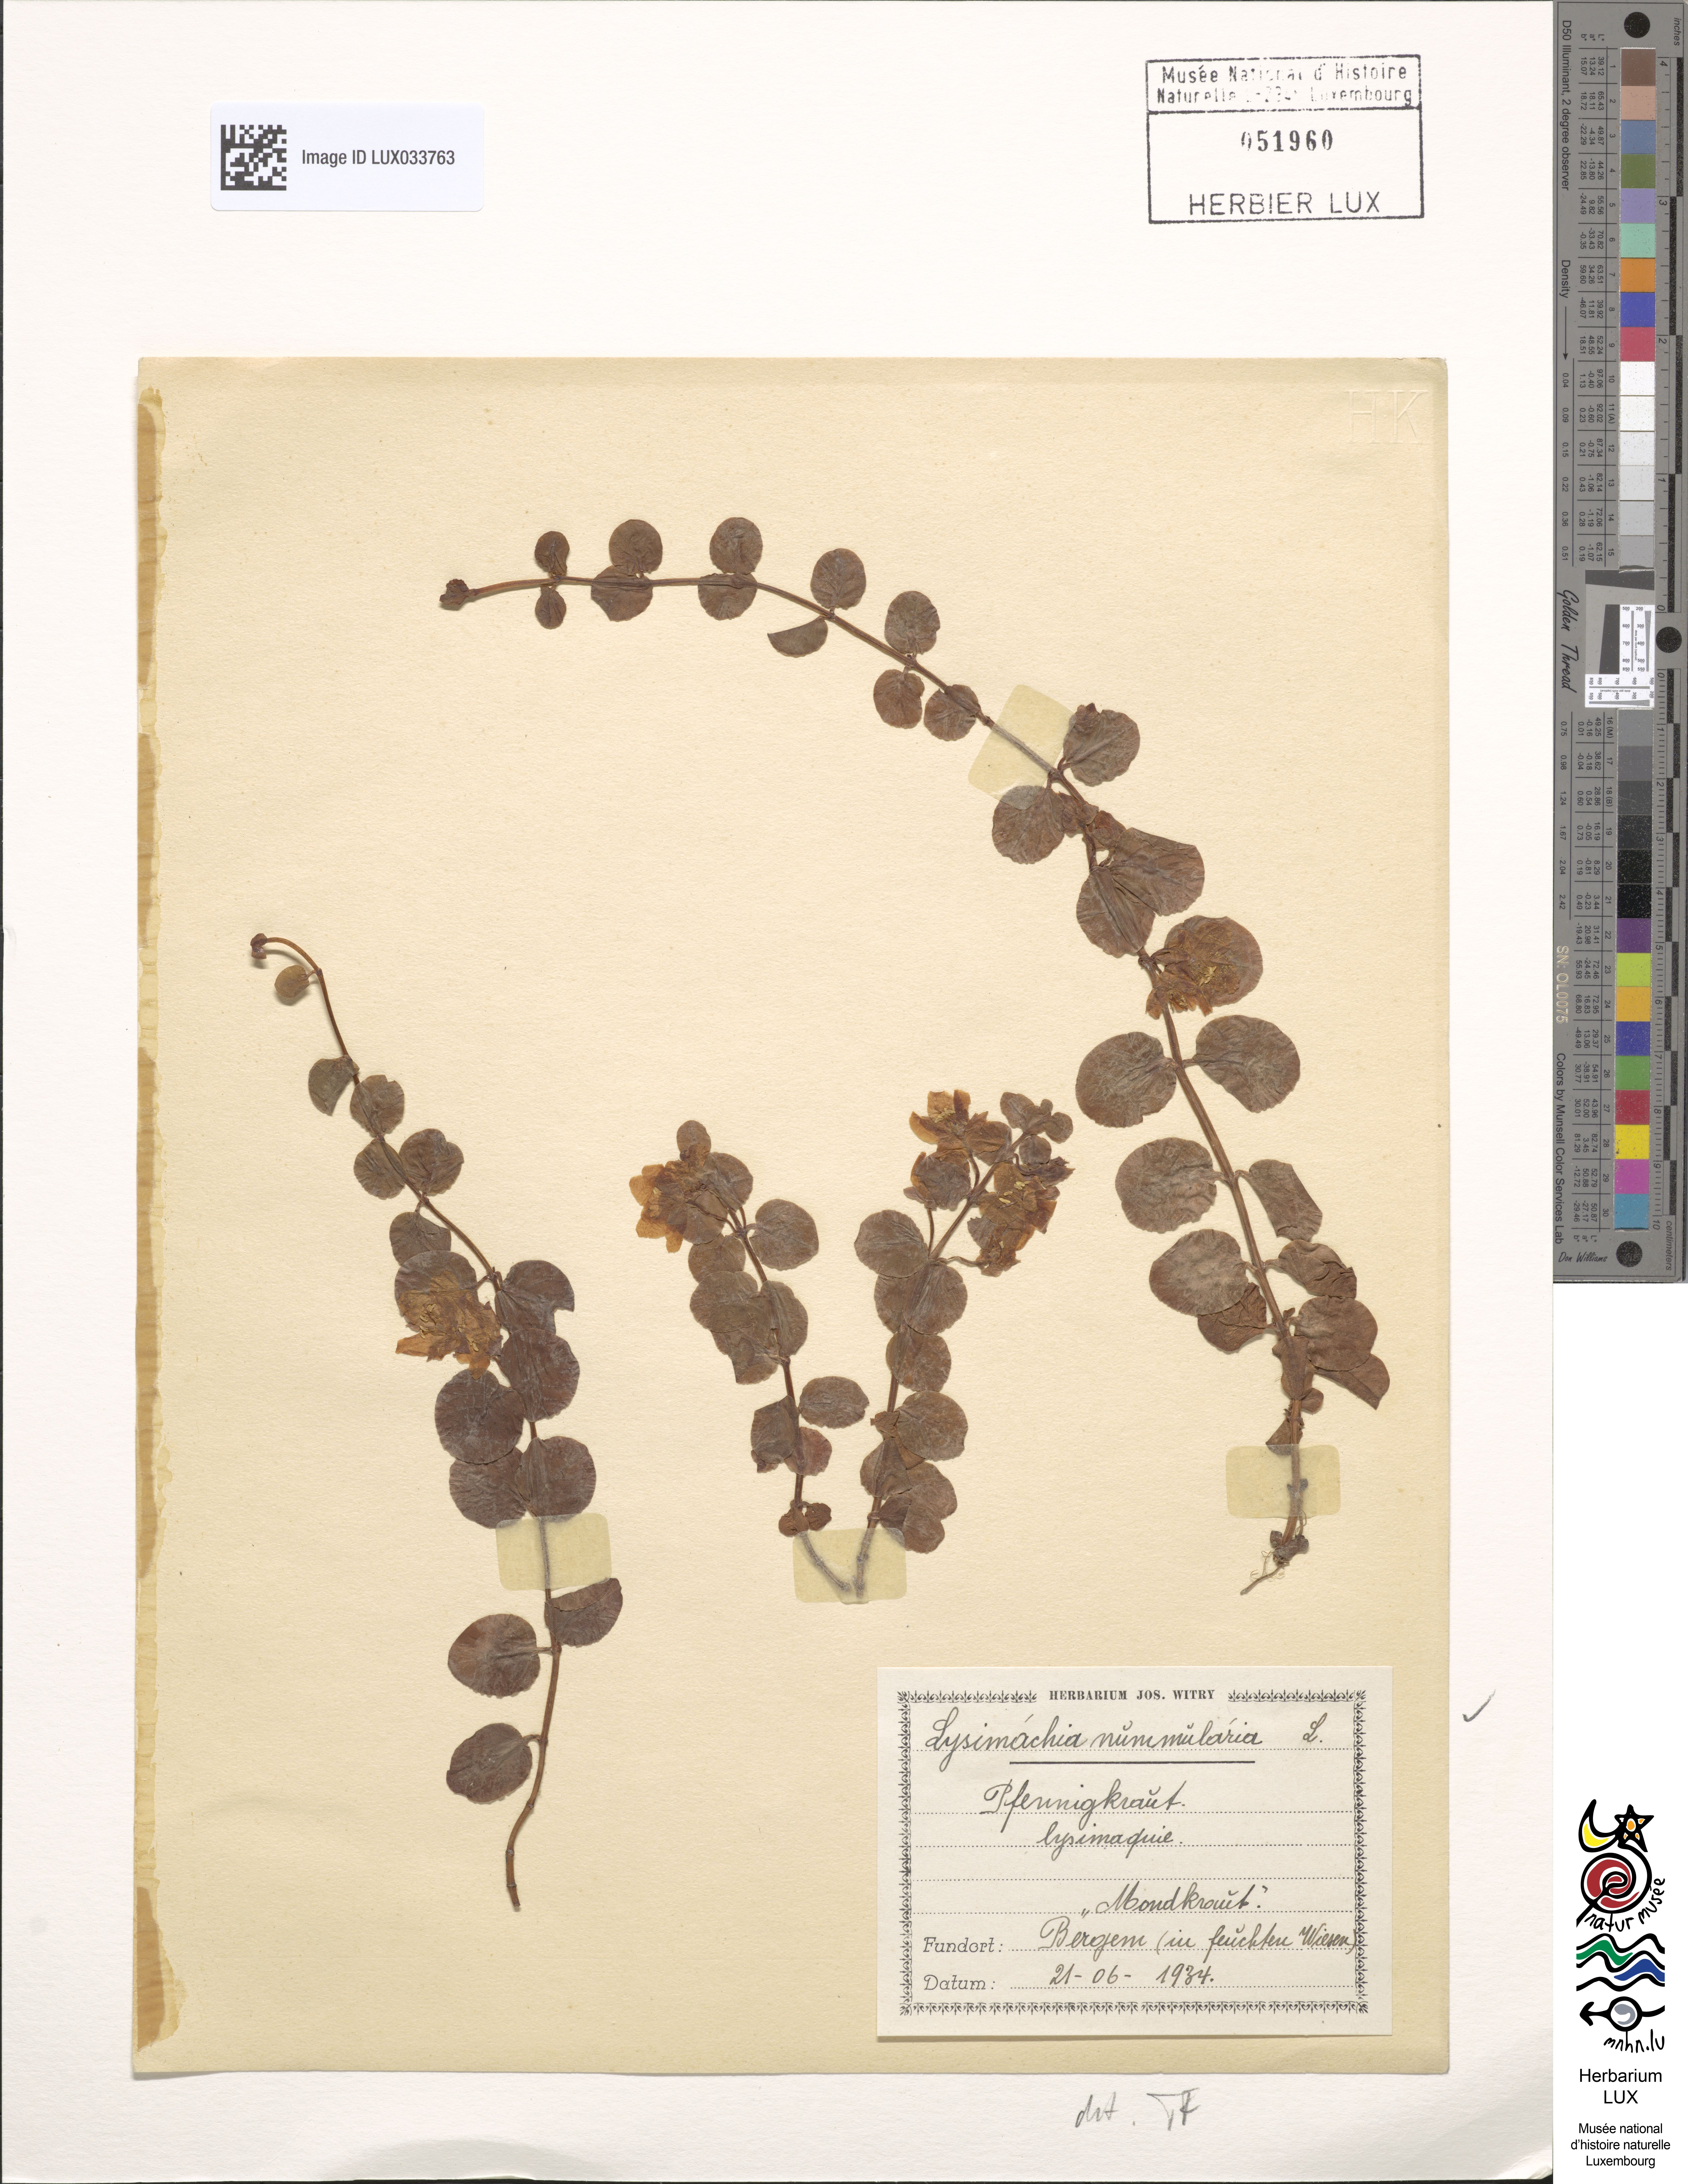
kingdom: Plantae
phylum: Tracheophyta
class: Magnoliopsida
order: Ericales
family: Primulaceae
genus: Lysimachia
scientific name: Lysimachia nummularia
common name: Moneywort
